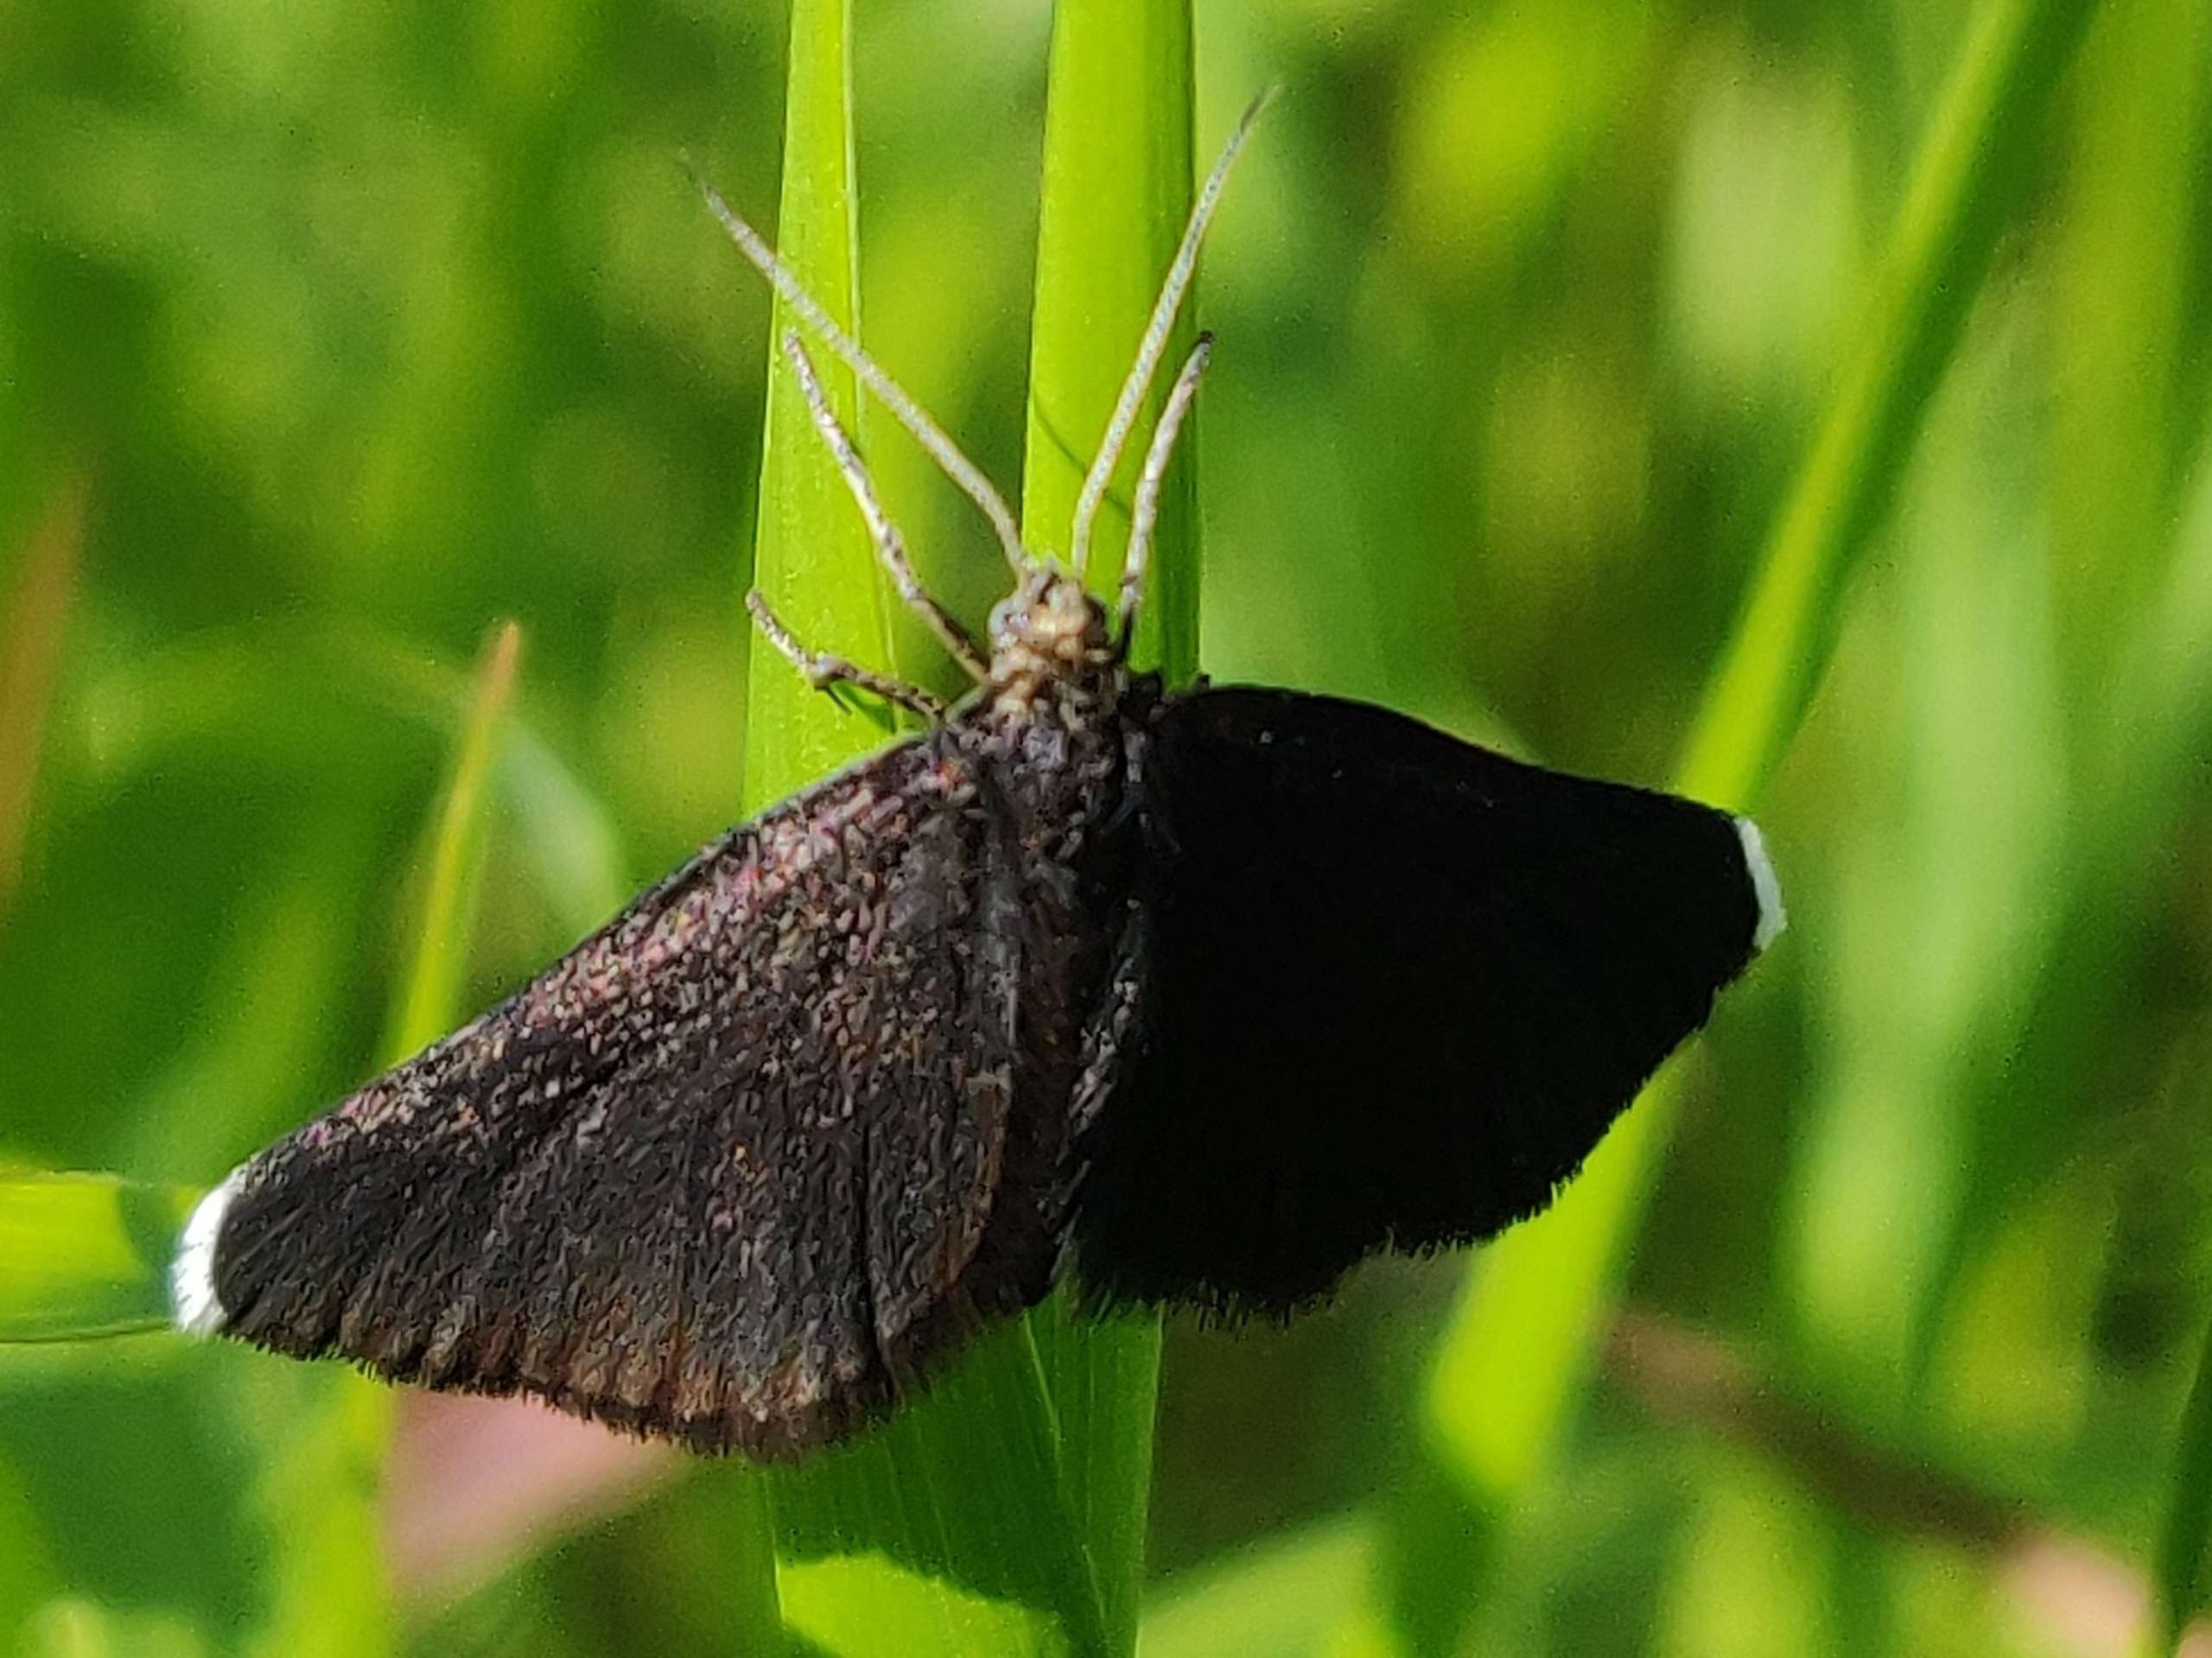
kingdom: Animalia
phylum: Arthropoda
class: Insecta
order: Lepidoptera
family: Geometridae
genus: Odezia
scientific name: Odezia atrata
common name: Sort måler
